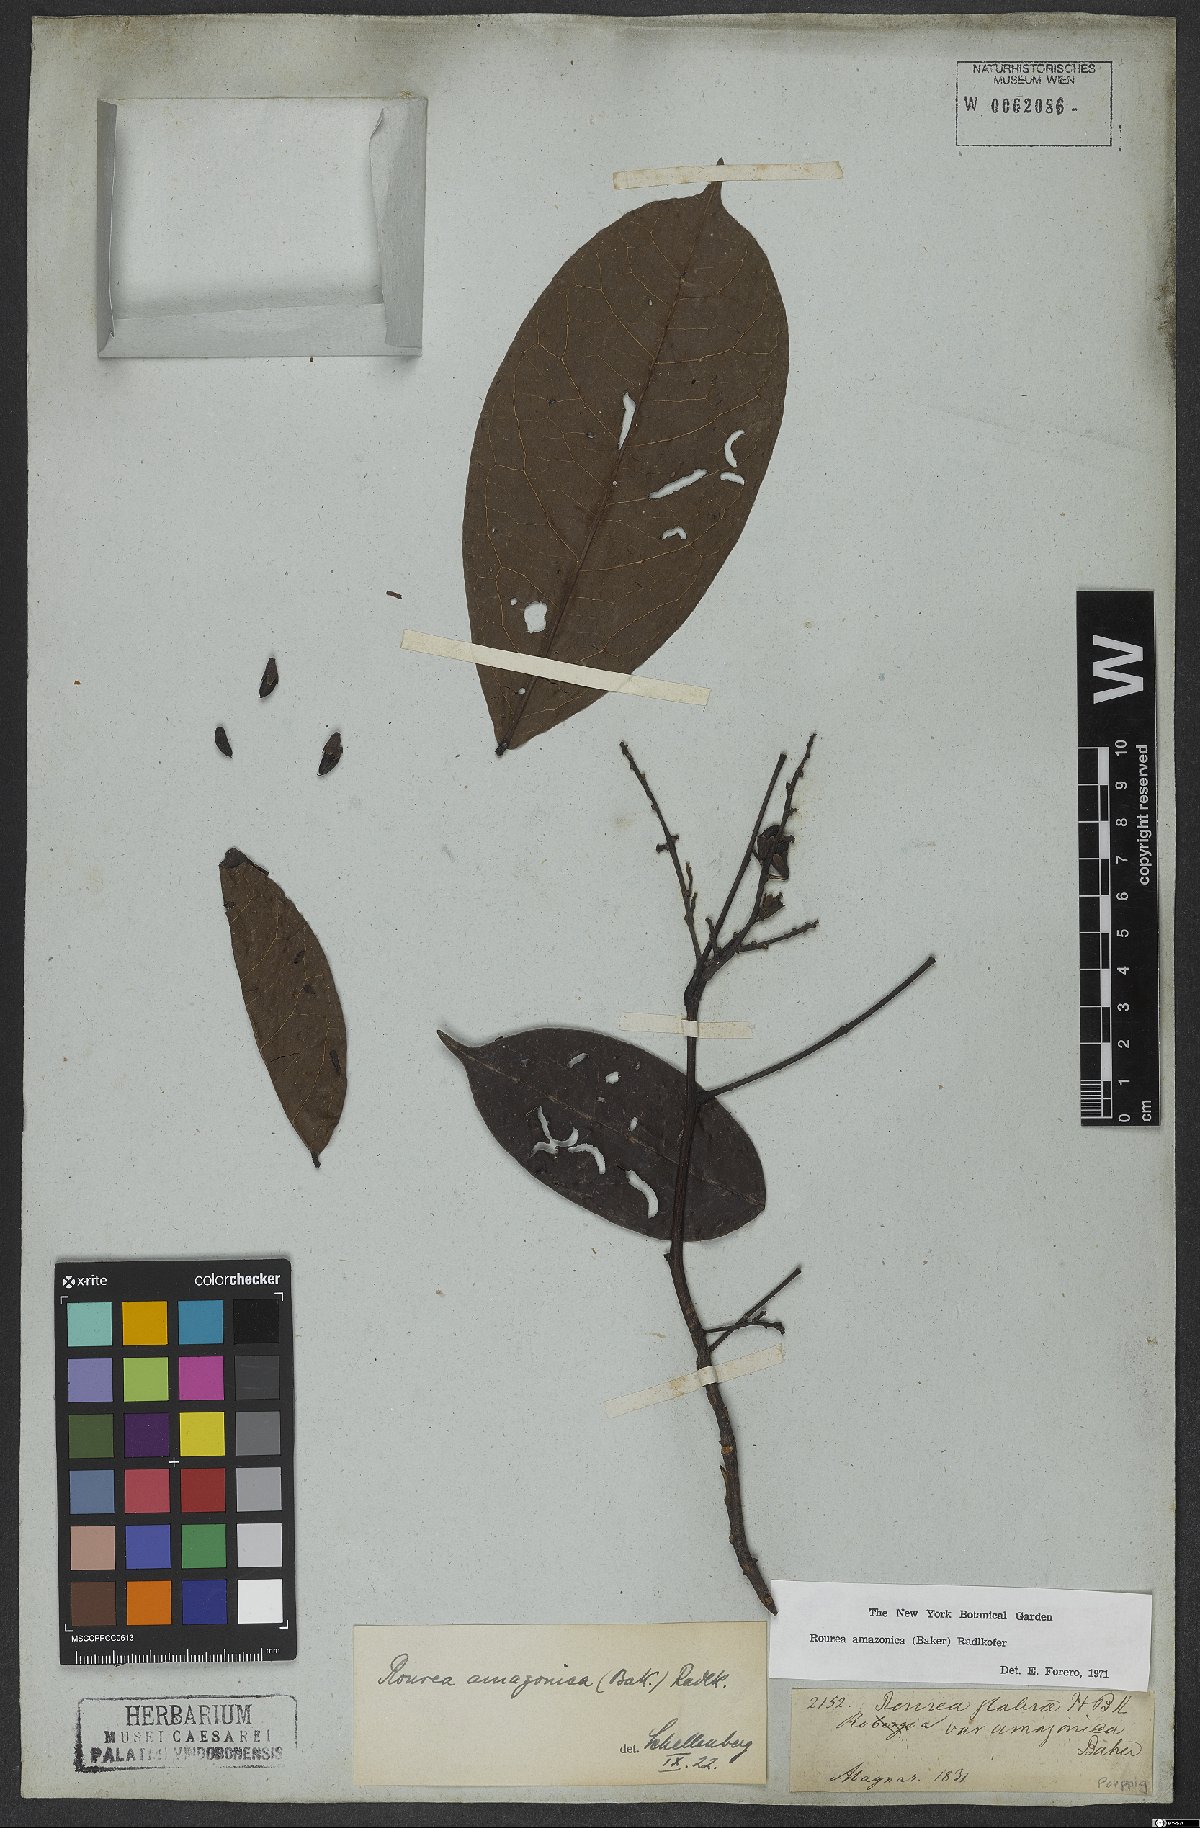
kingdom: Plantae
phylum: Tracheophyta
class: Magnoliopsida
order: Oxalidales
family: Connaraceae
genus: Rourea
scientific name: Rourea amazonica
